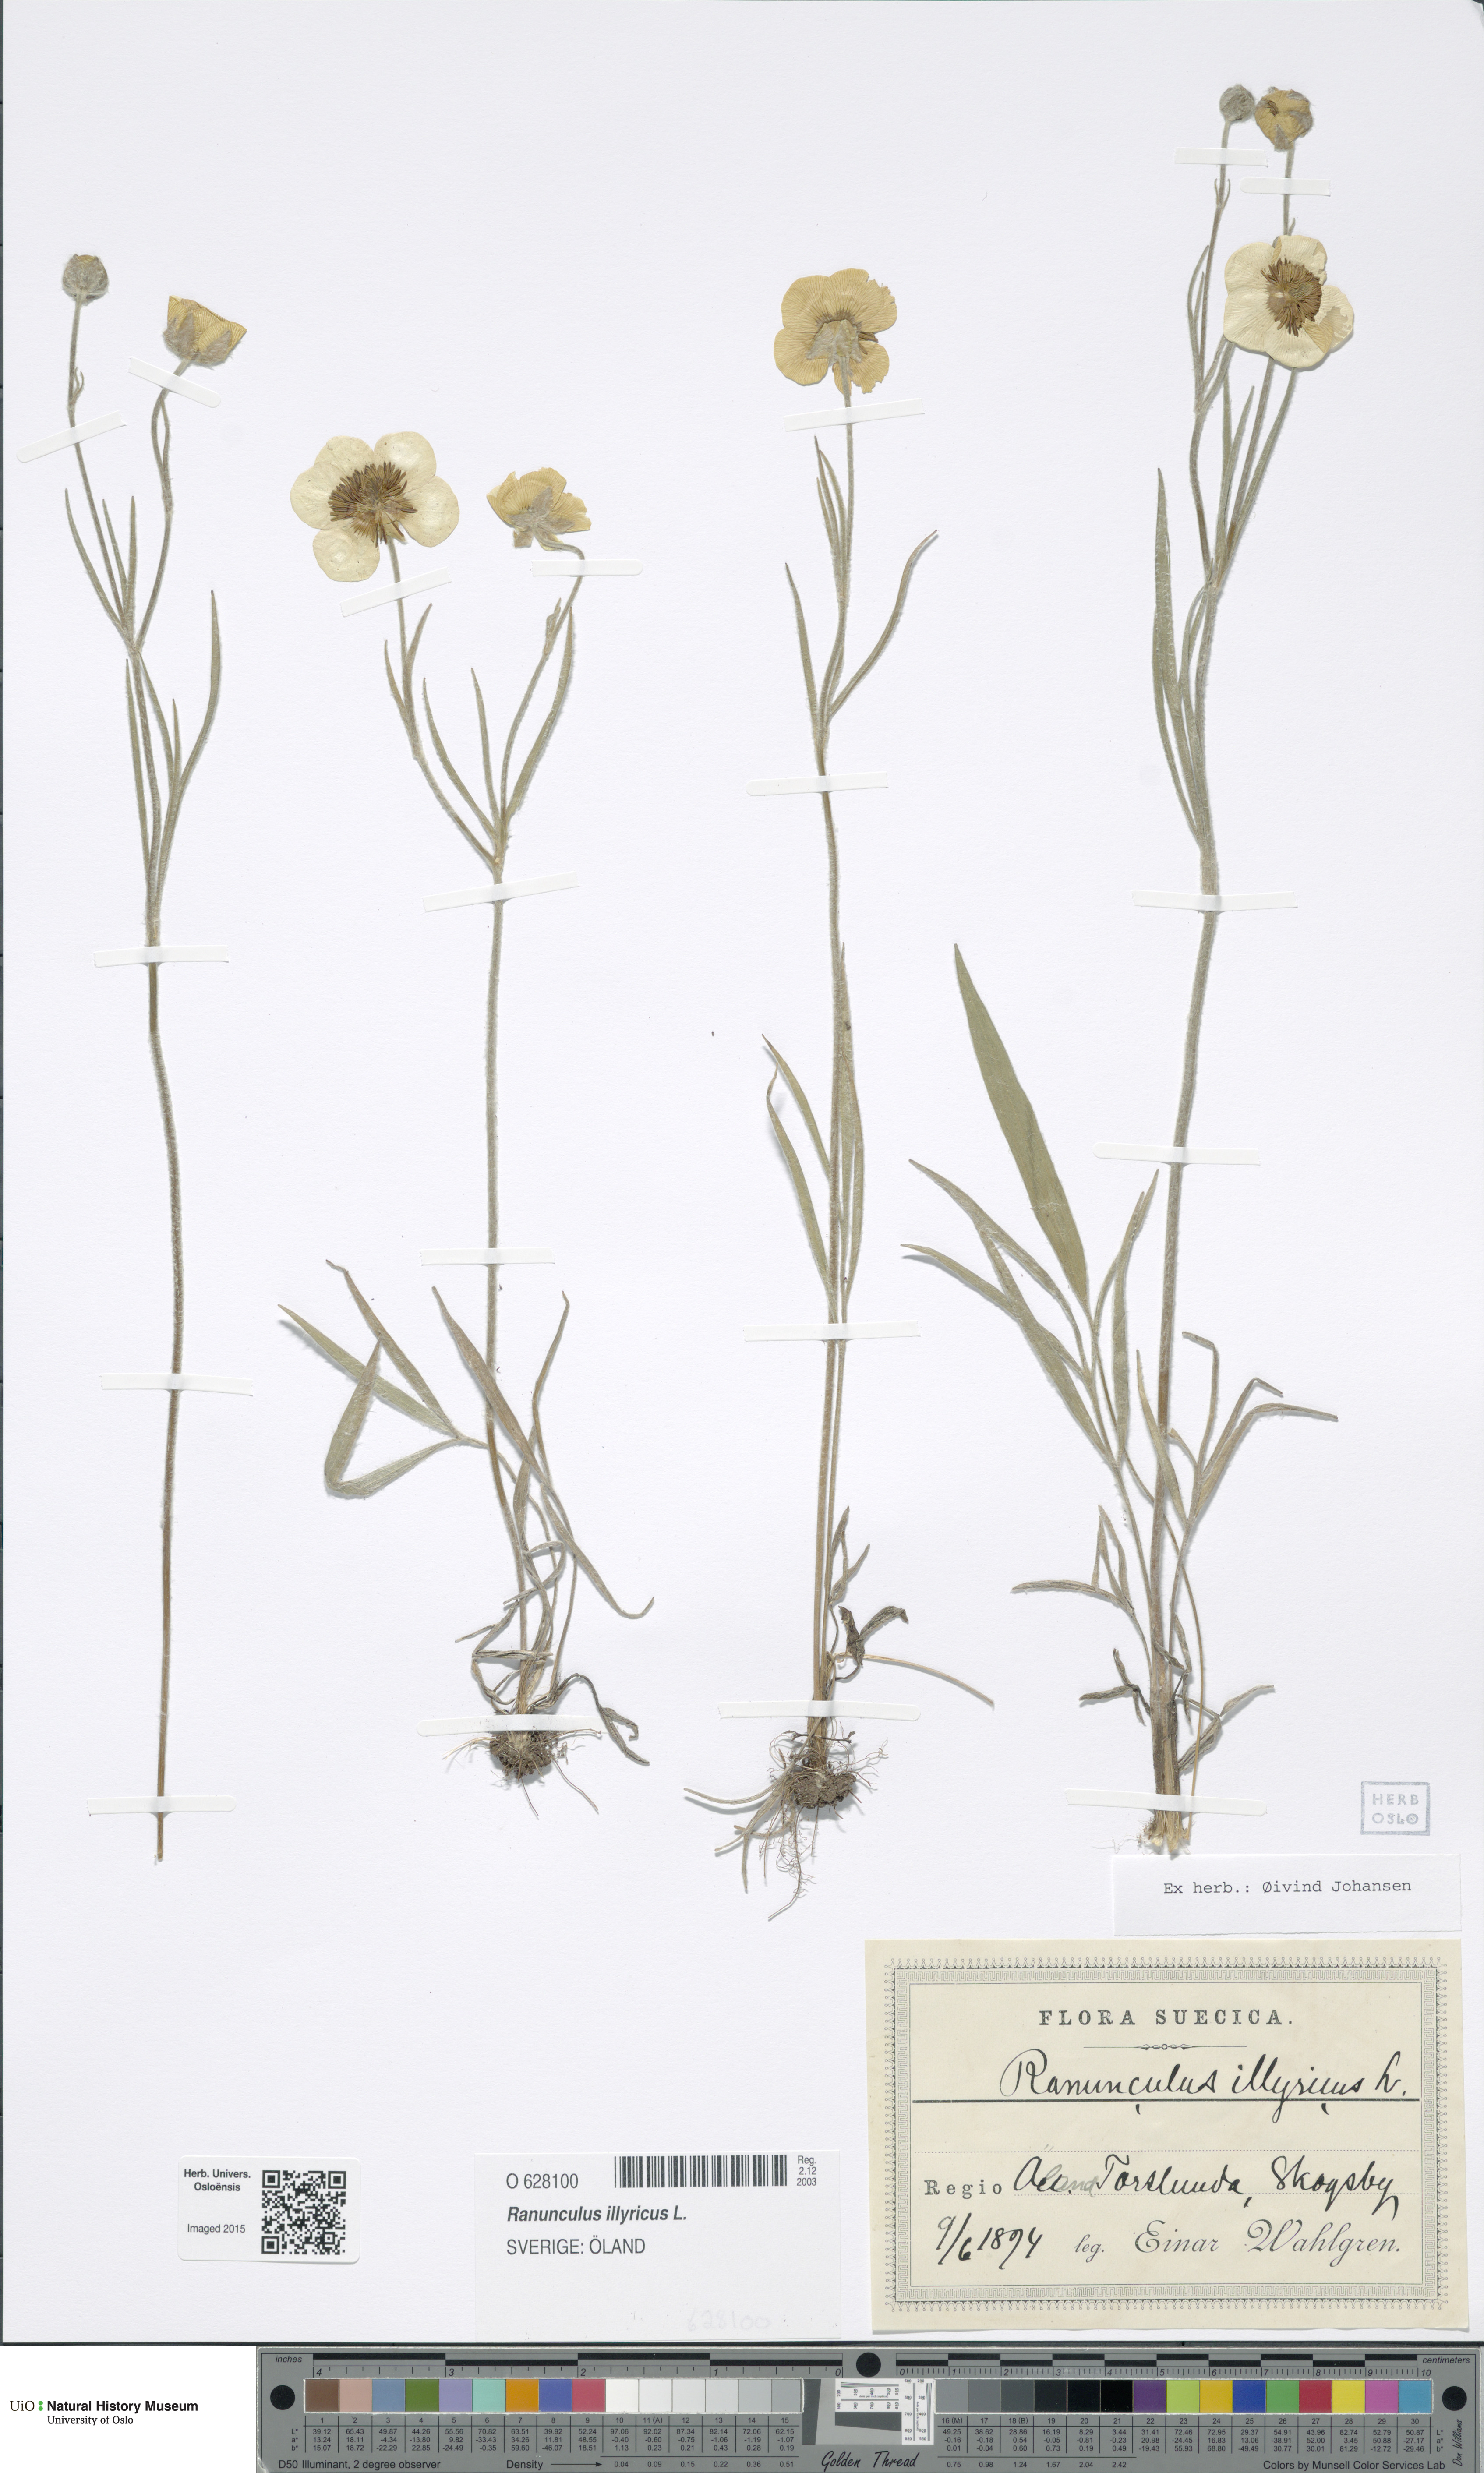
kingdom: Plantae
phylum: Tracheophyta
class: Magnoliopsida
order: Ranunculales
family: Ranunculaceae
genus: Ranunculus
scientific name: Ranunculus illyricus
